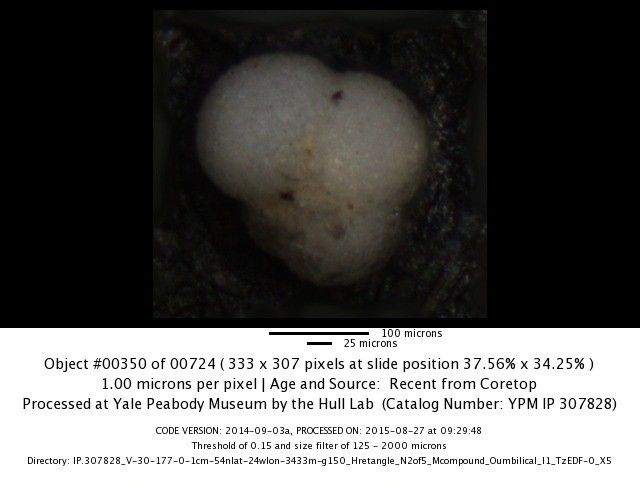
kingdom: Chromista
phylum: Foraminifera
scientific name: Foraminifera
